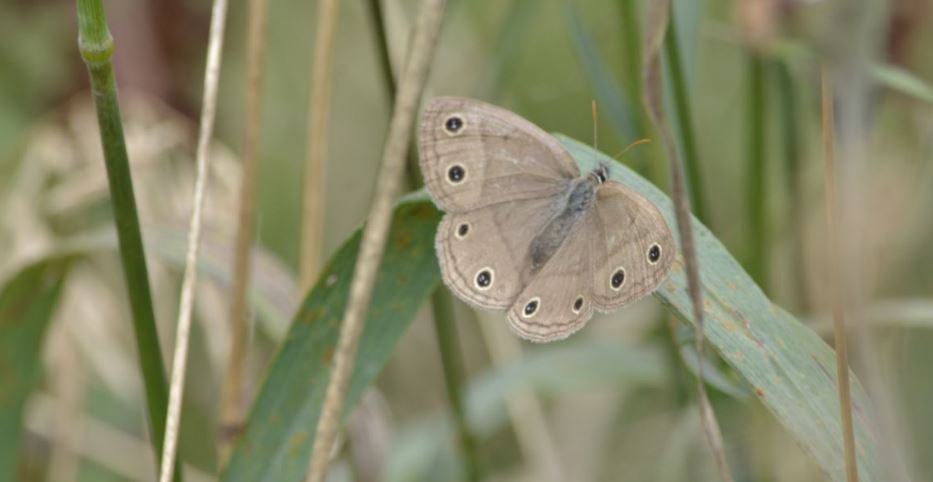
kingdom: Animalia
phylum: Arthropoda
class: Insecta
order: Lepidoptera
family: Nymphalidae
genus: Euptychia
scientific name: Euptychia cymela
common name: Little Wood Satyr
